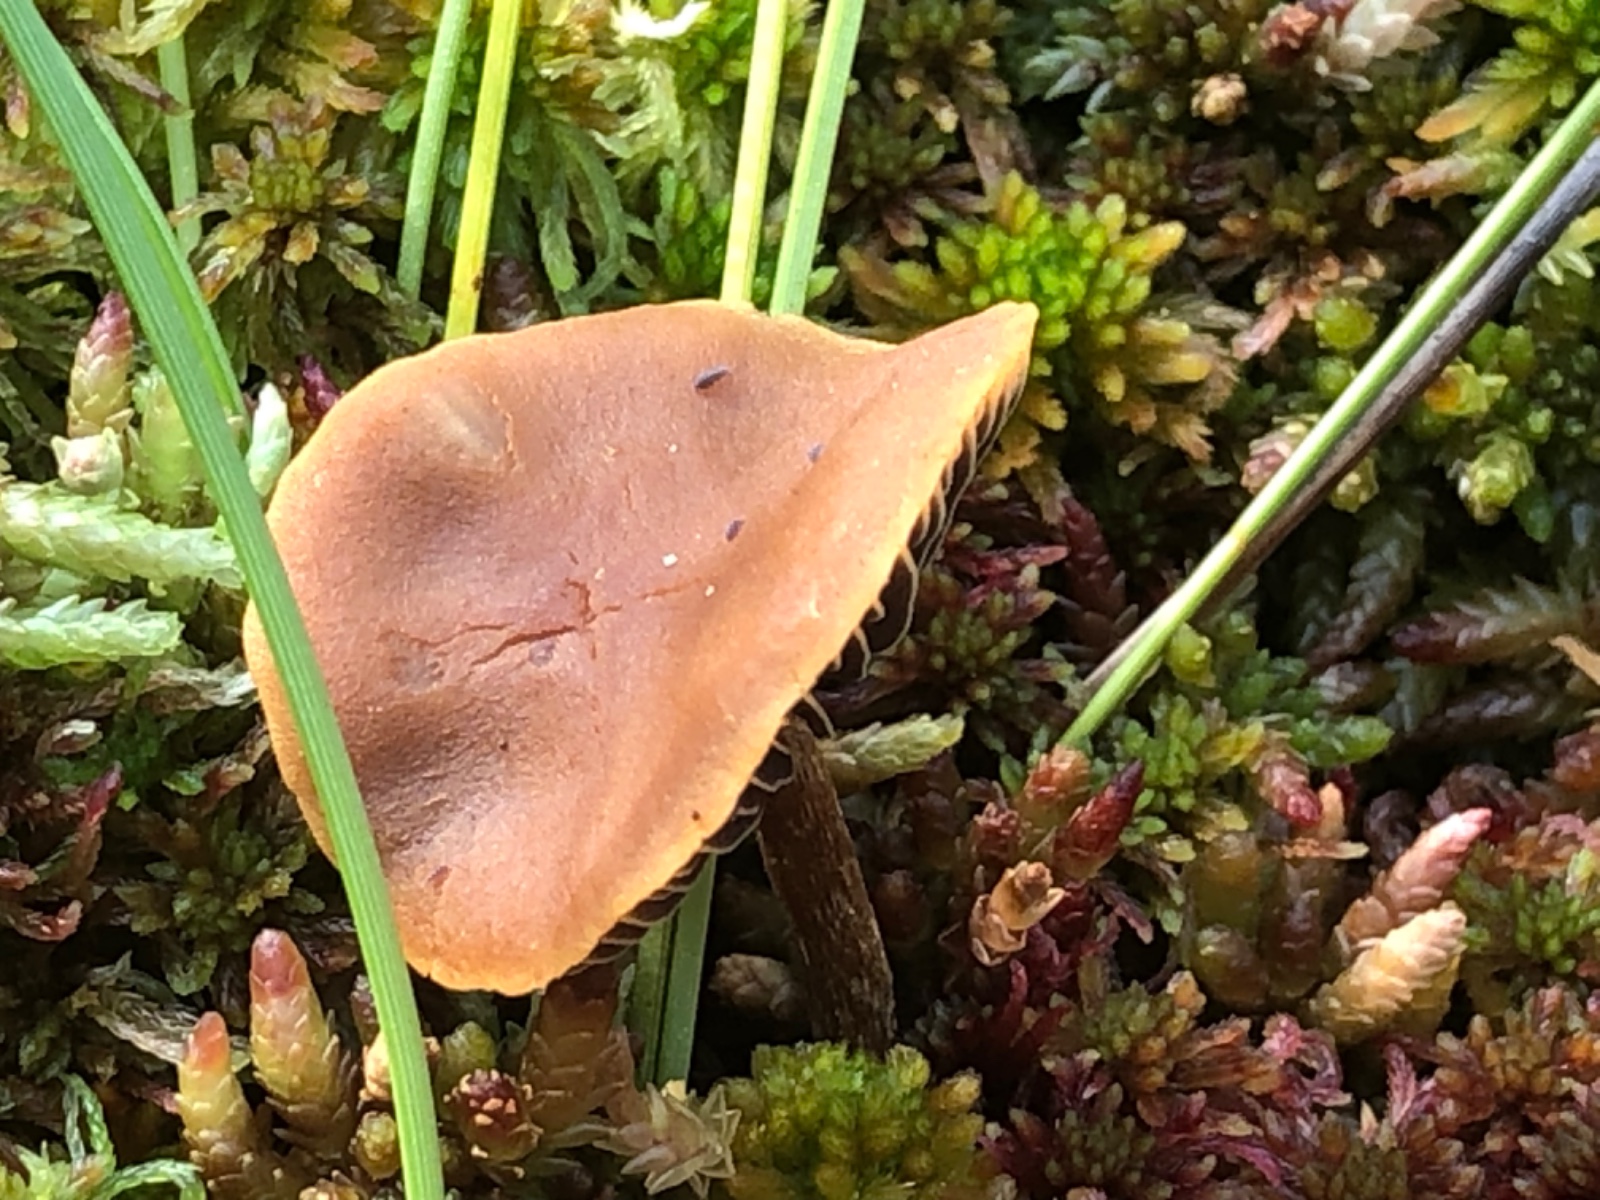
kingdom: Fungi
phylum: Basidiomycota
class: Agaricomycetes
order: Agaricales
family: Strophariaceae
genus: Bogbodia
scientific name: Bogbodia uda
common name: tørve-svovlhat
